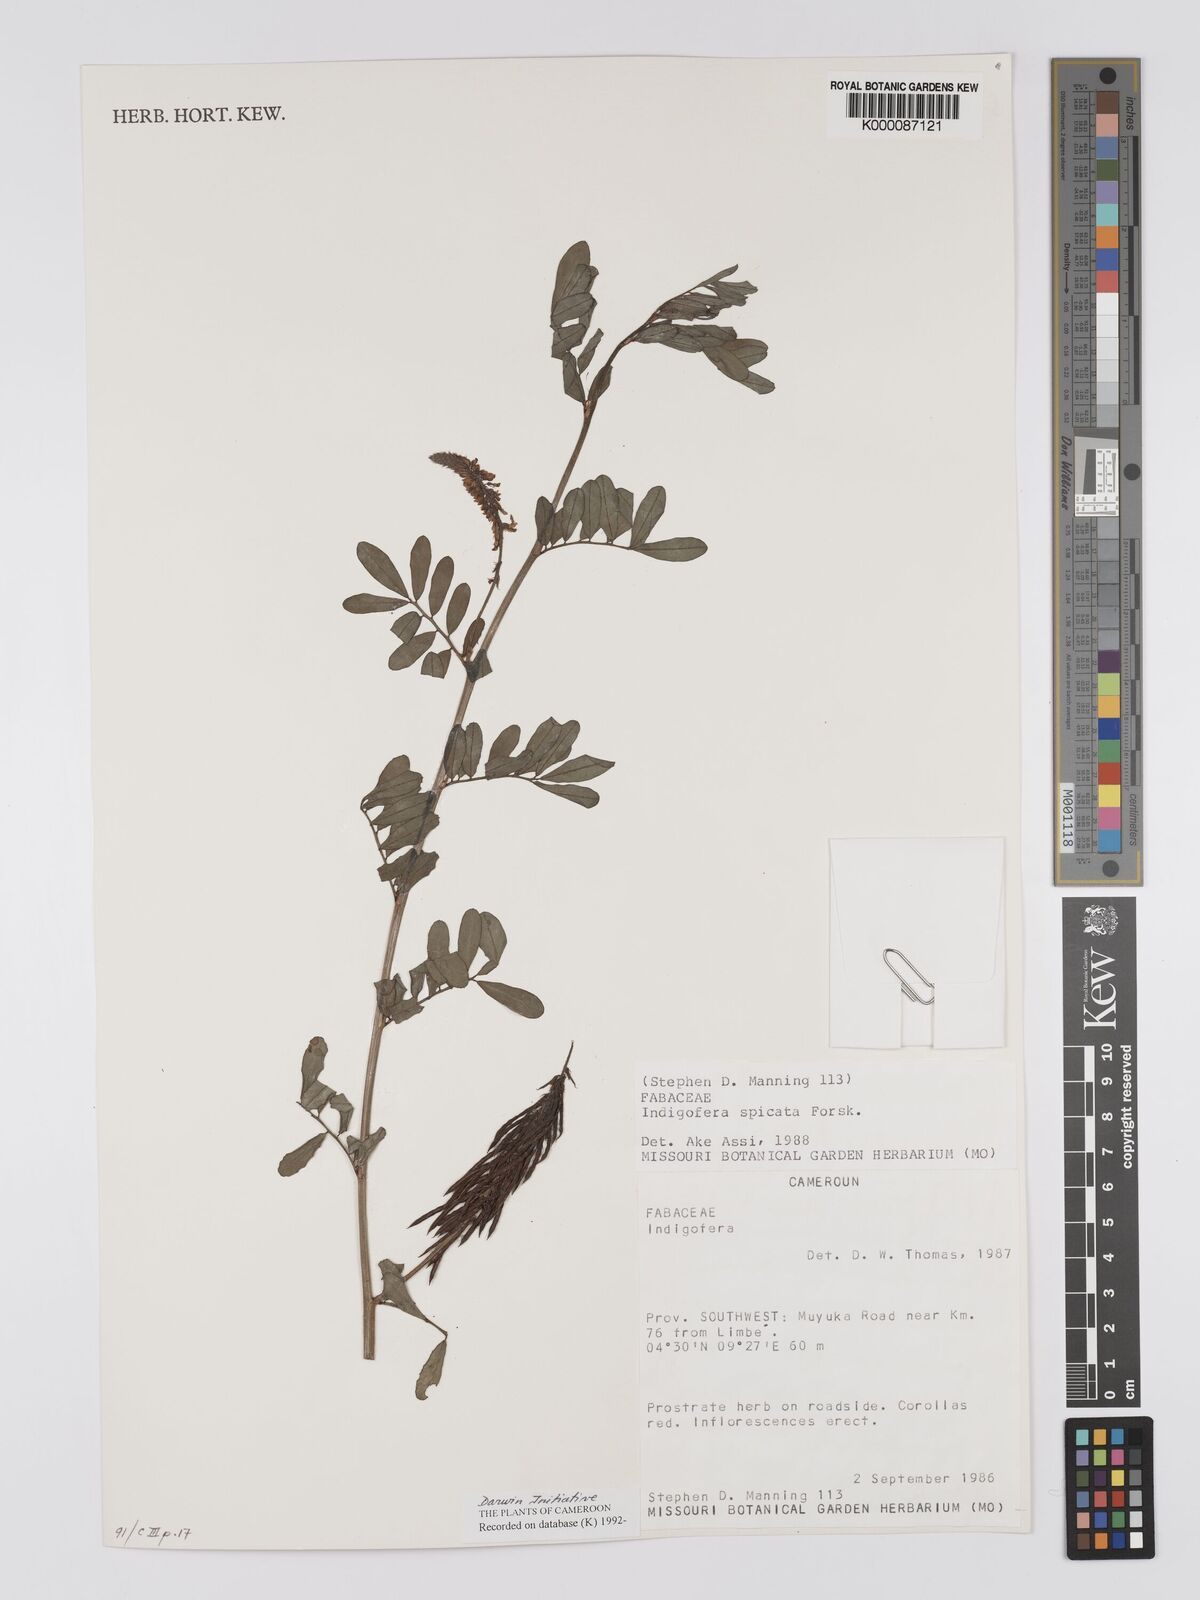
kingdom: Plantae
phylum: Tracheophyta
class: Magnoliopsida
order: Fabales
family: Fabaceae
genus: Indigofera
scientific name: Indigofera spicata
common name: Creeping indigo
